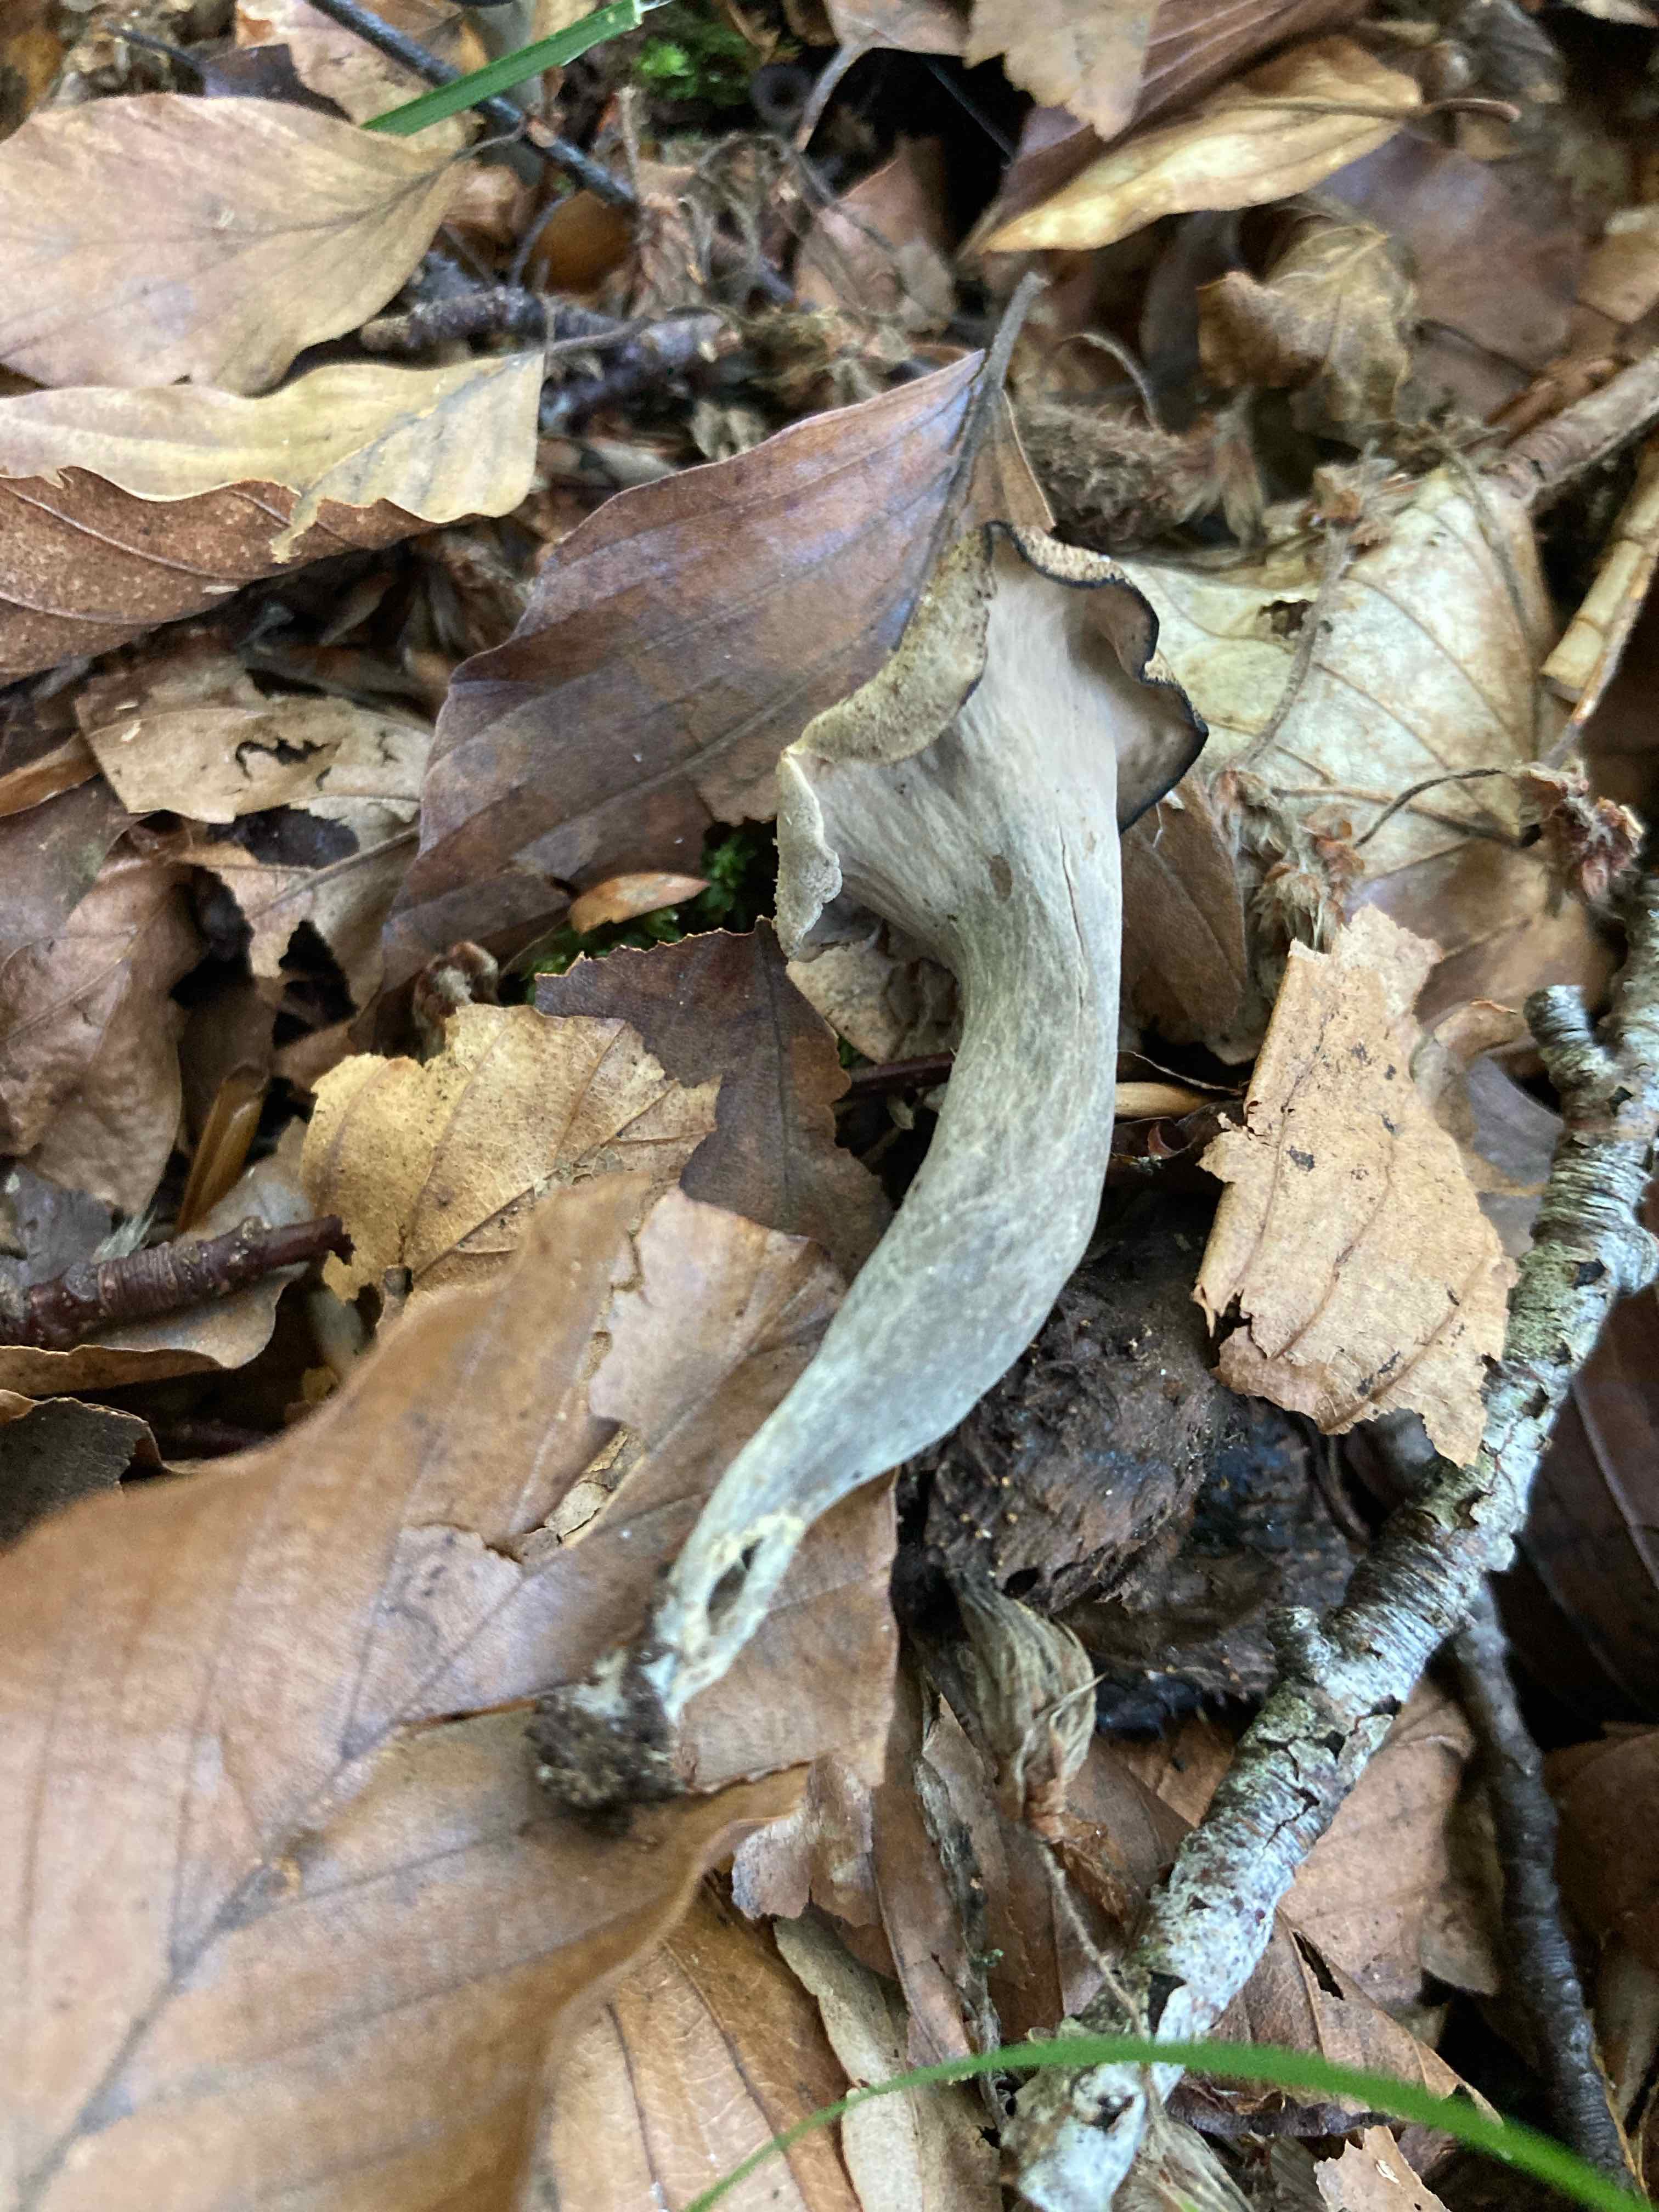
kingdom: Fungi
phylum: Basidiomycota
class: Agaricomycetes
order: Cantharellales
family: Hydnaceae
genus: Craterellus
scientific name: Craterellus cornucopioides
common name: trompetsvamp
